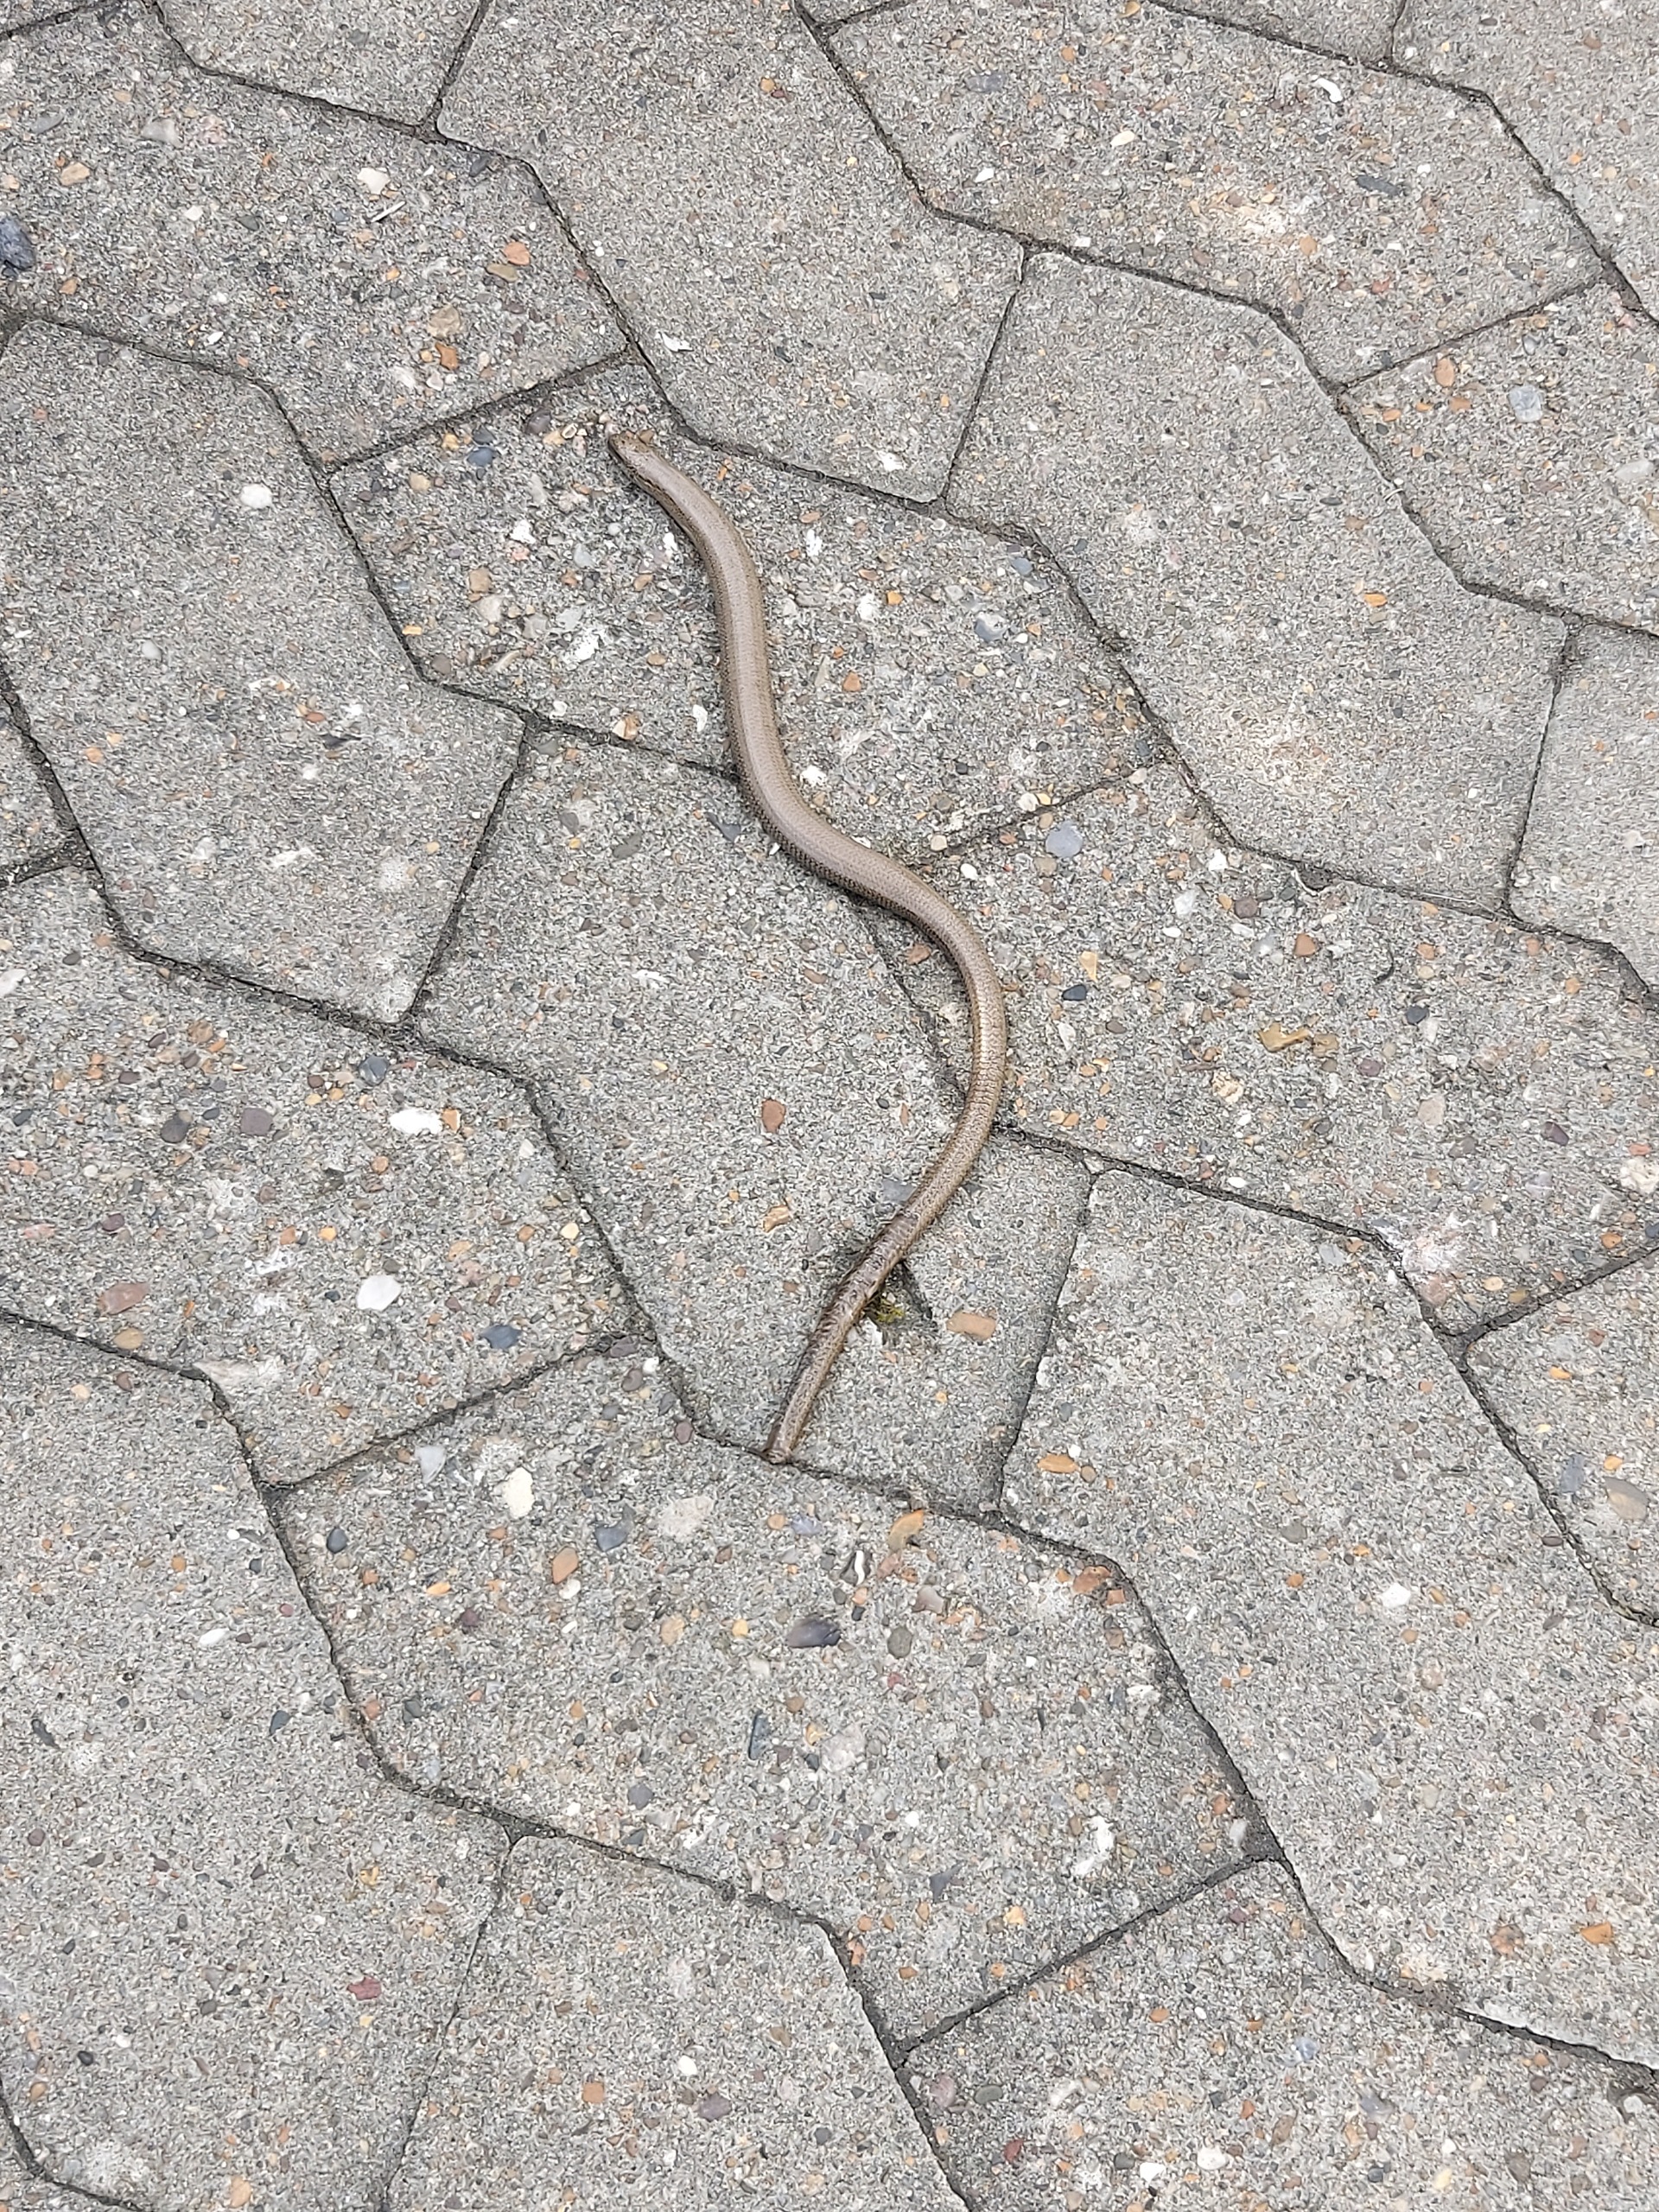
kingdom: Animalia
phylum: Chordata
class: Squamata
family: Anguidae
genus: Anguis
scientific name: Anguis fragilis
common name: Stålorm
